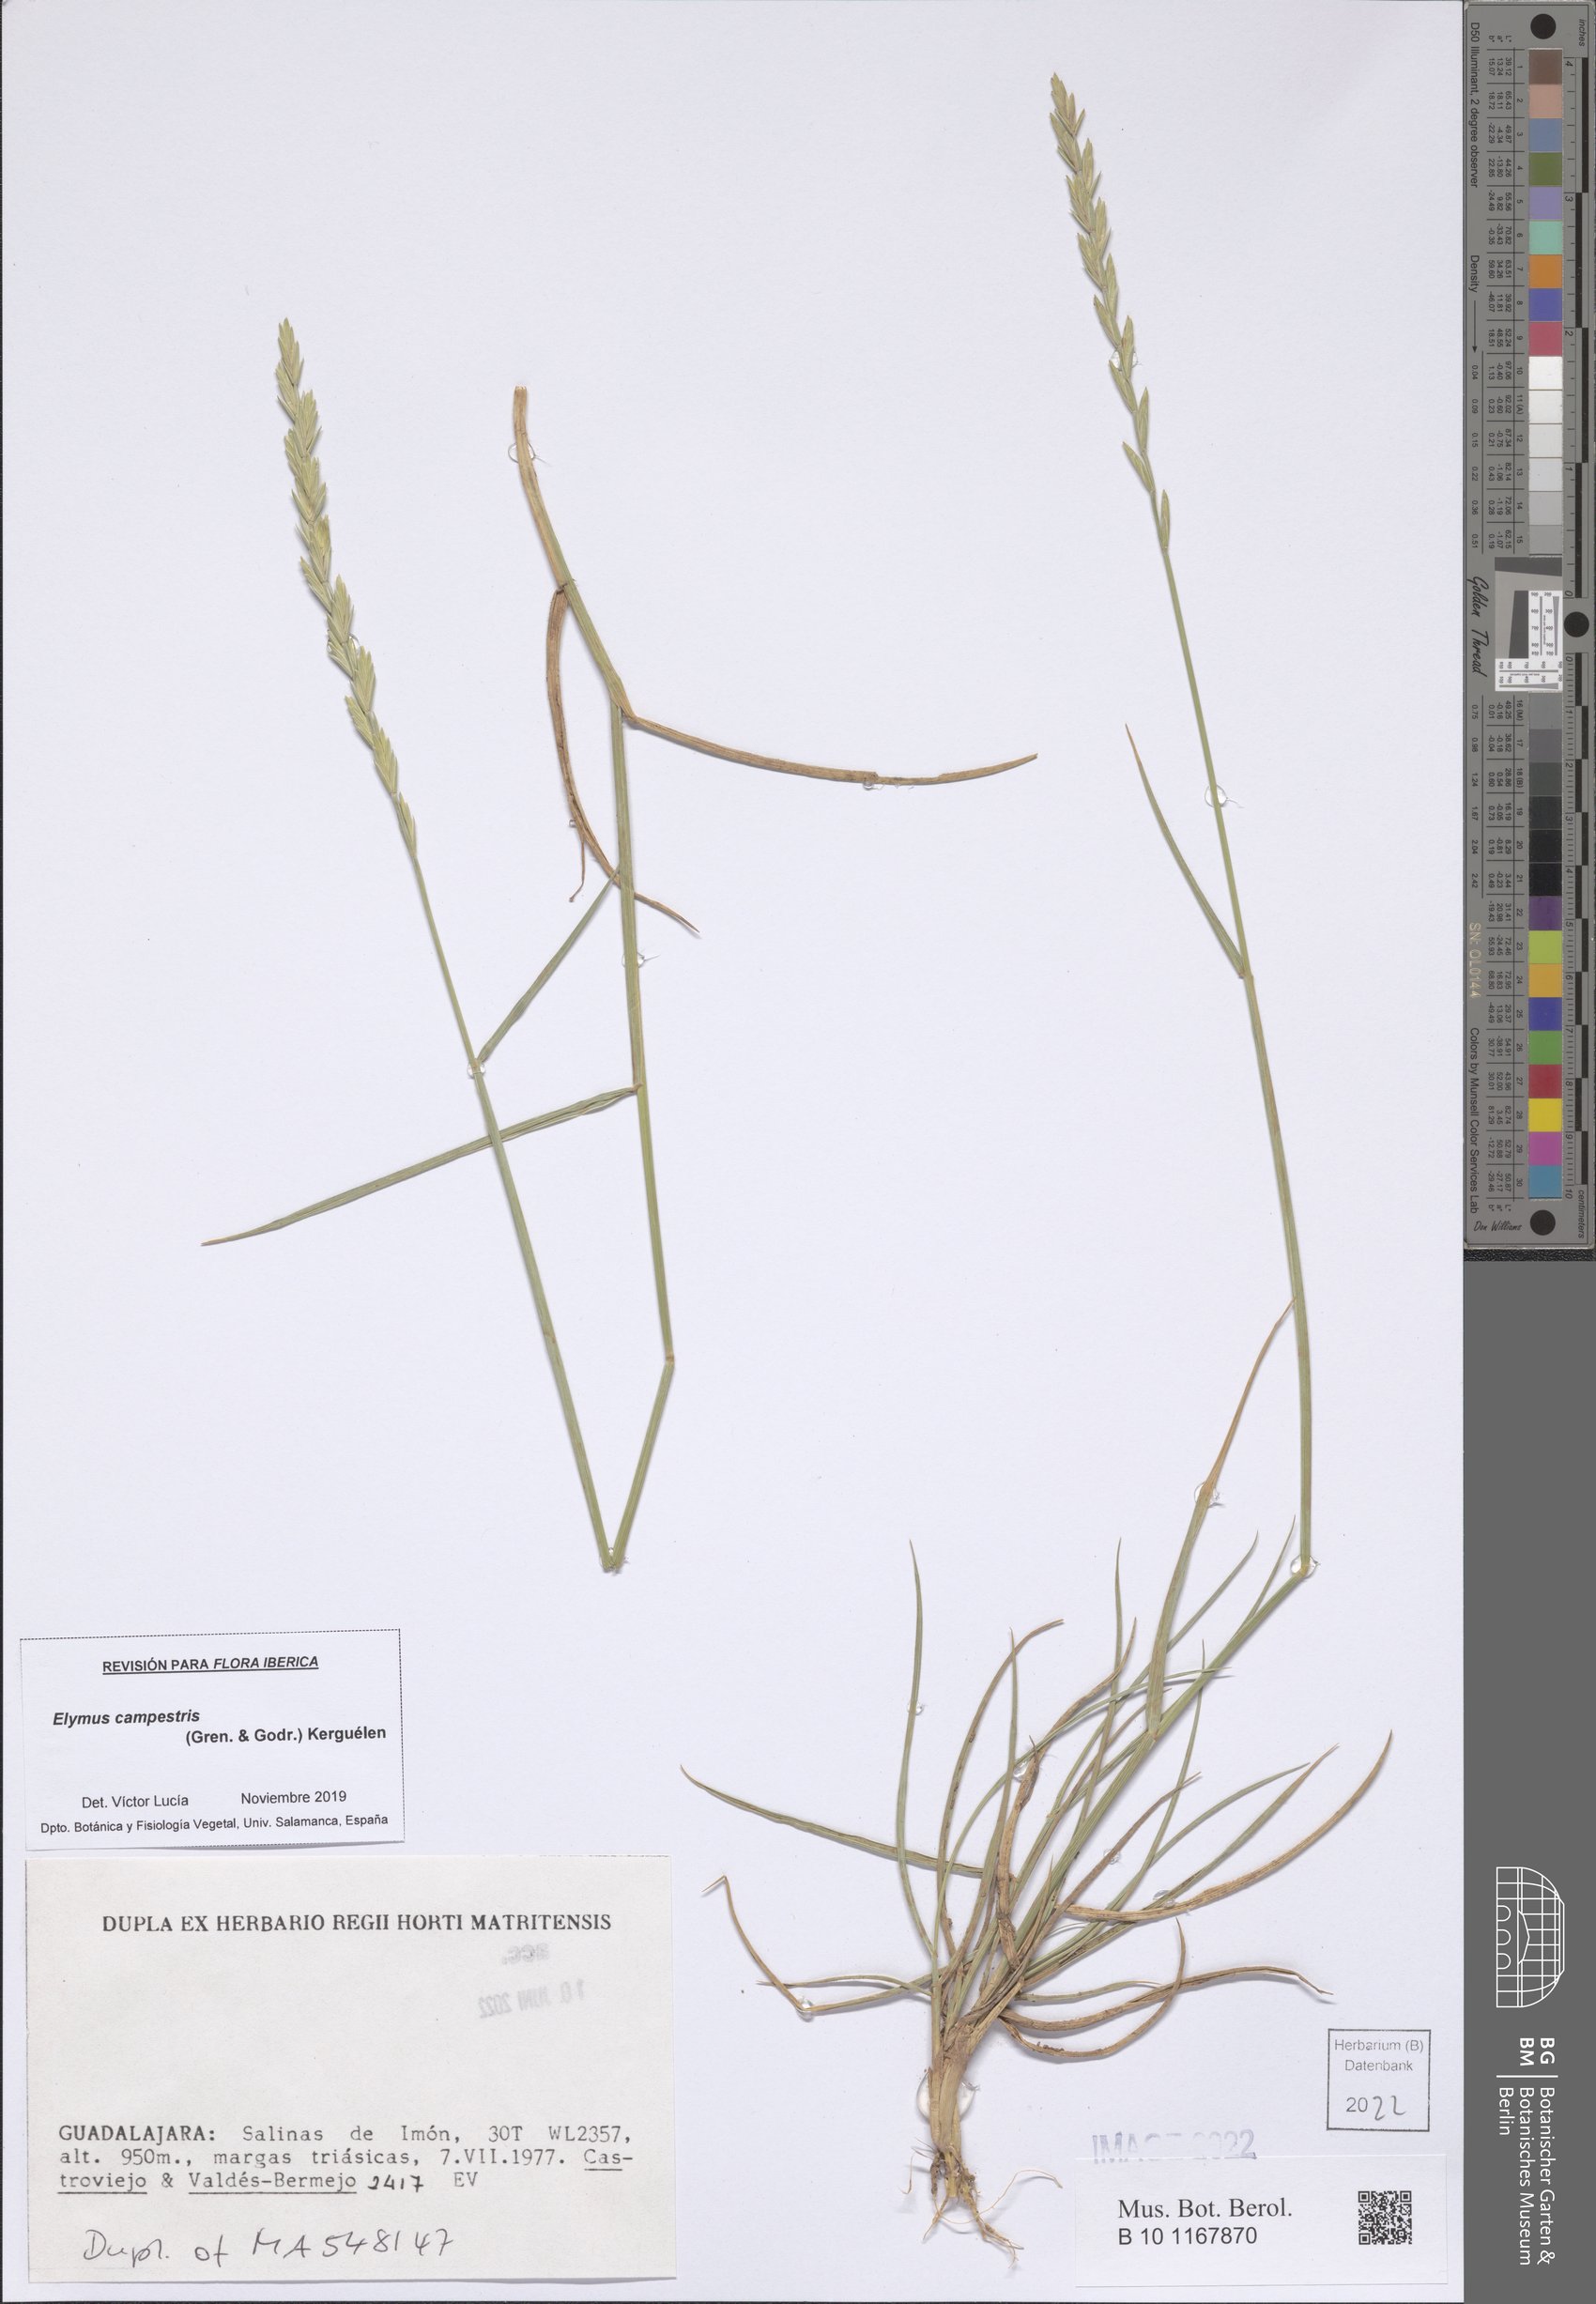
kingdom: Plantae
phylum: Tracheophyta
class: Liliopsida
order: Poales
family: Poaceae
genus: Elymus
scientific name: Elymus pungens
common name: Sea couch
